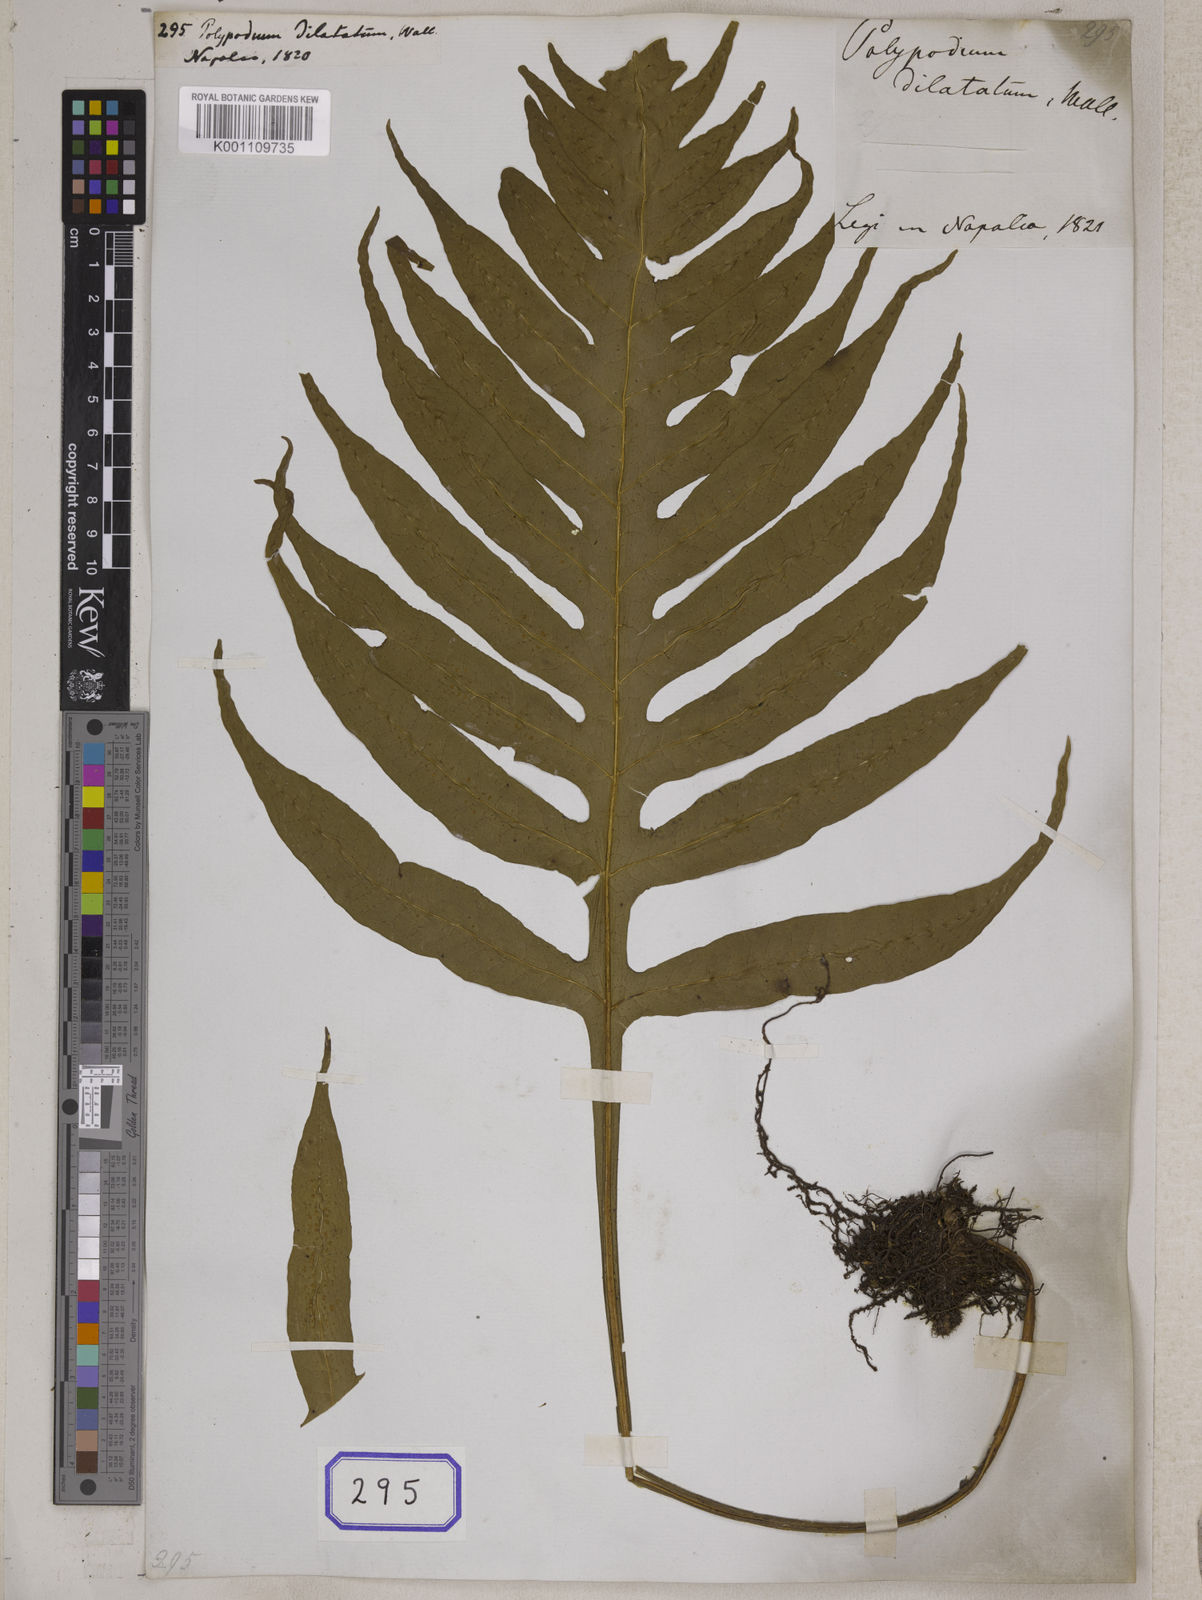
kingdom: Plantae
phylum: Tracheophyta
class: Polypodiopsida
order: Polypodiales
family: Polypodiaceae
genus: Leptochilus
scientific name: Leptochilus insignis
